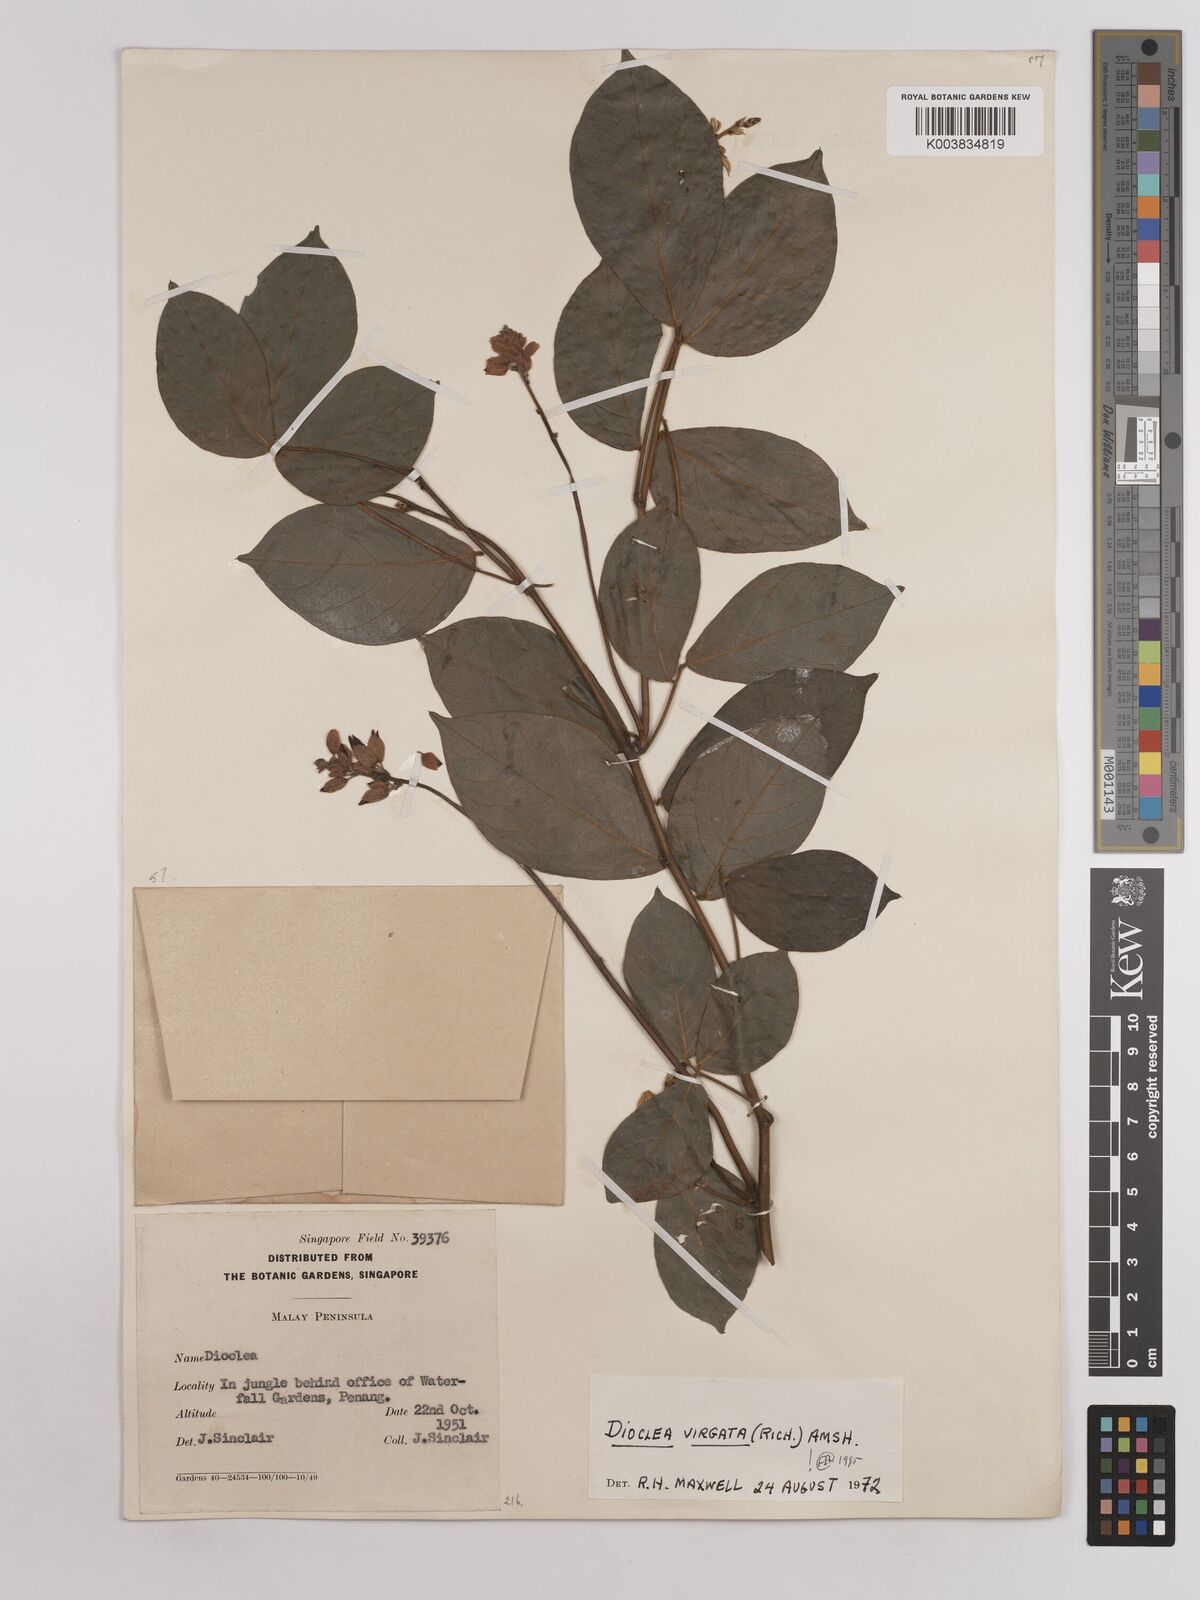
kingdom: Plantae
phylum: Tracheophyta
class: Magnoliopsida
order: Fabales
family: Fabaceae
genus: Dioclea
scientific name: Dioclea virgata
